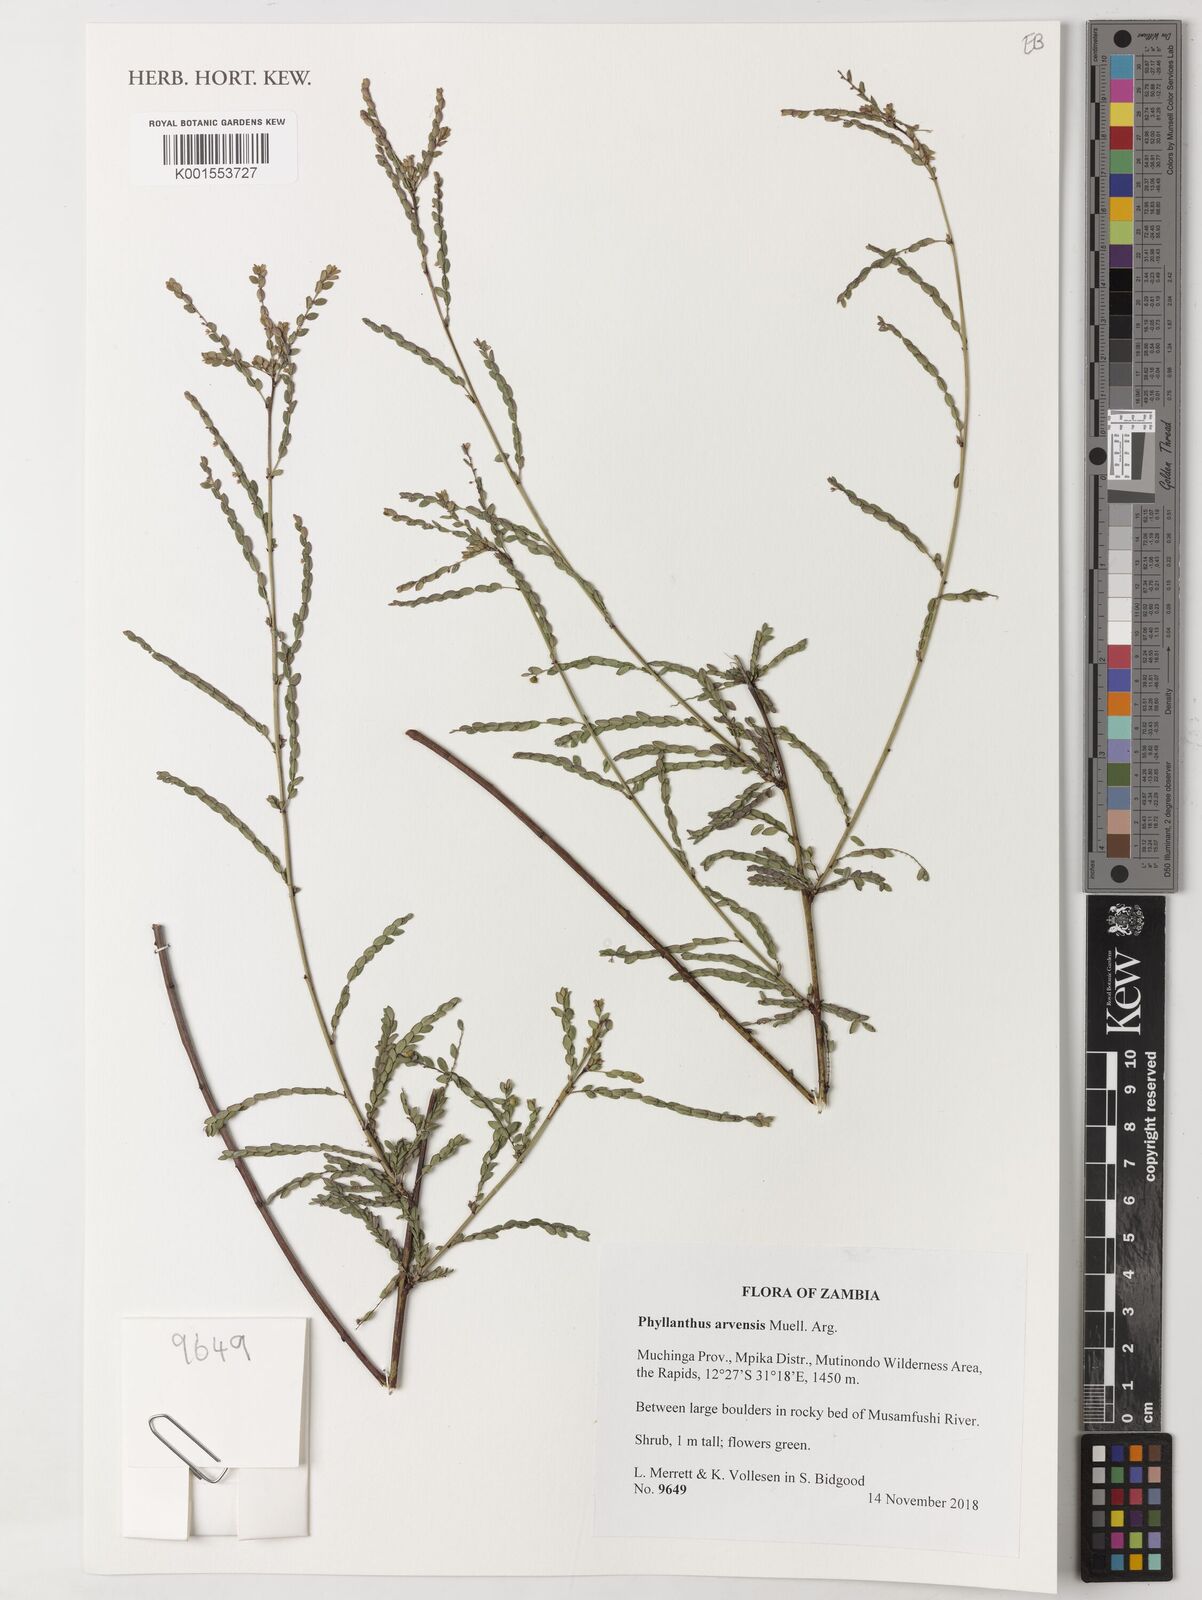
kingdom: Plantae
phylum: Tracheophyta
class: Magnoliopsida
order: Malpighiales
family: Phyllanthaceae
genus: Phyllanthus
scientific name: Phyllanthus arvensis
